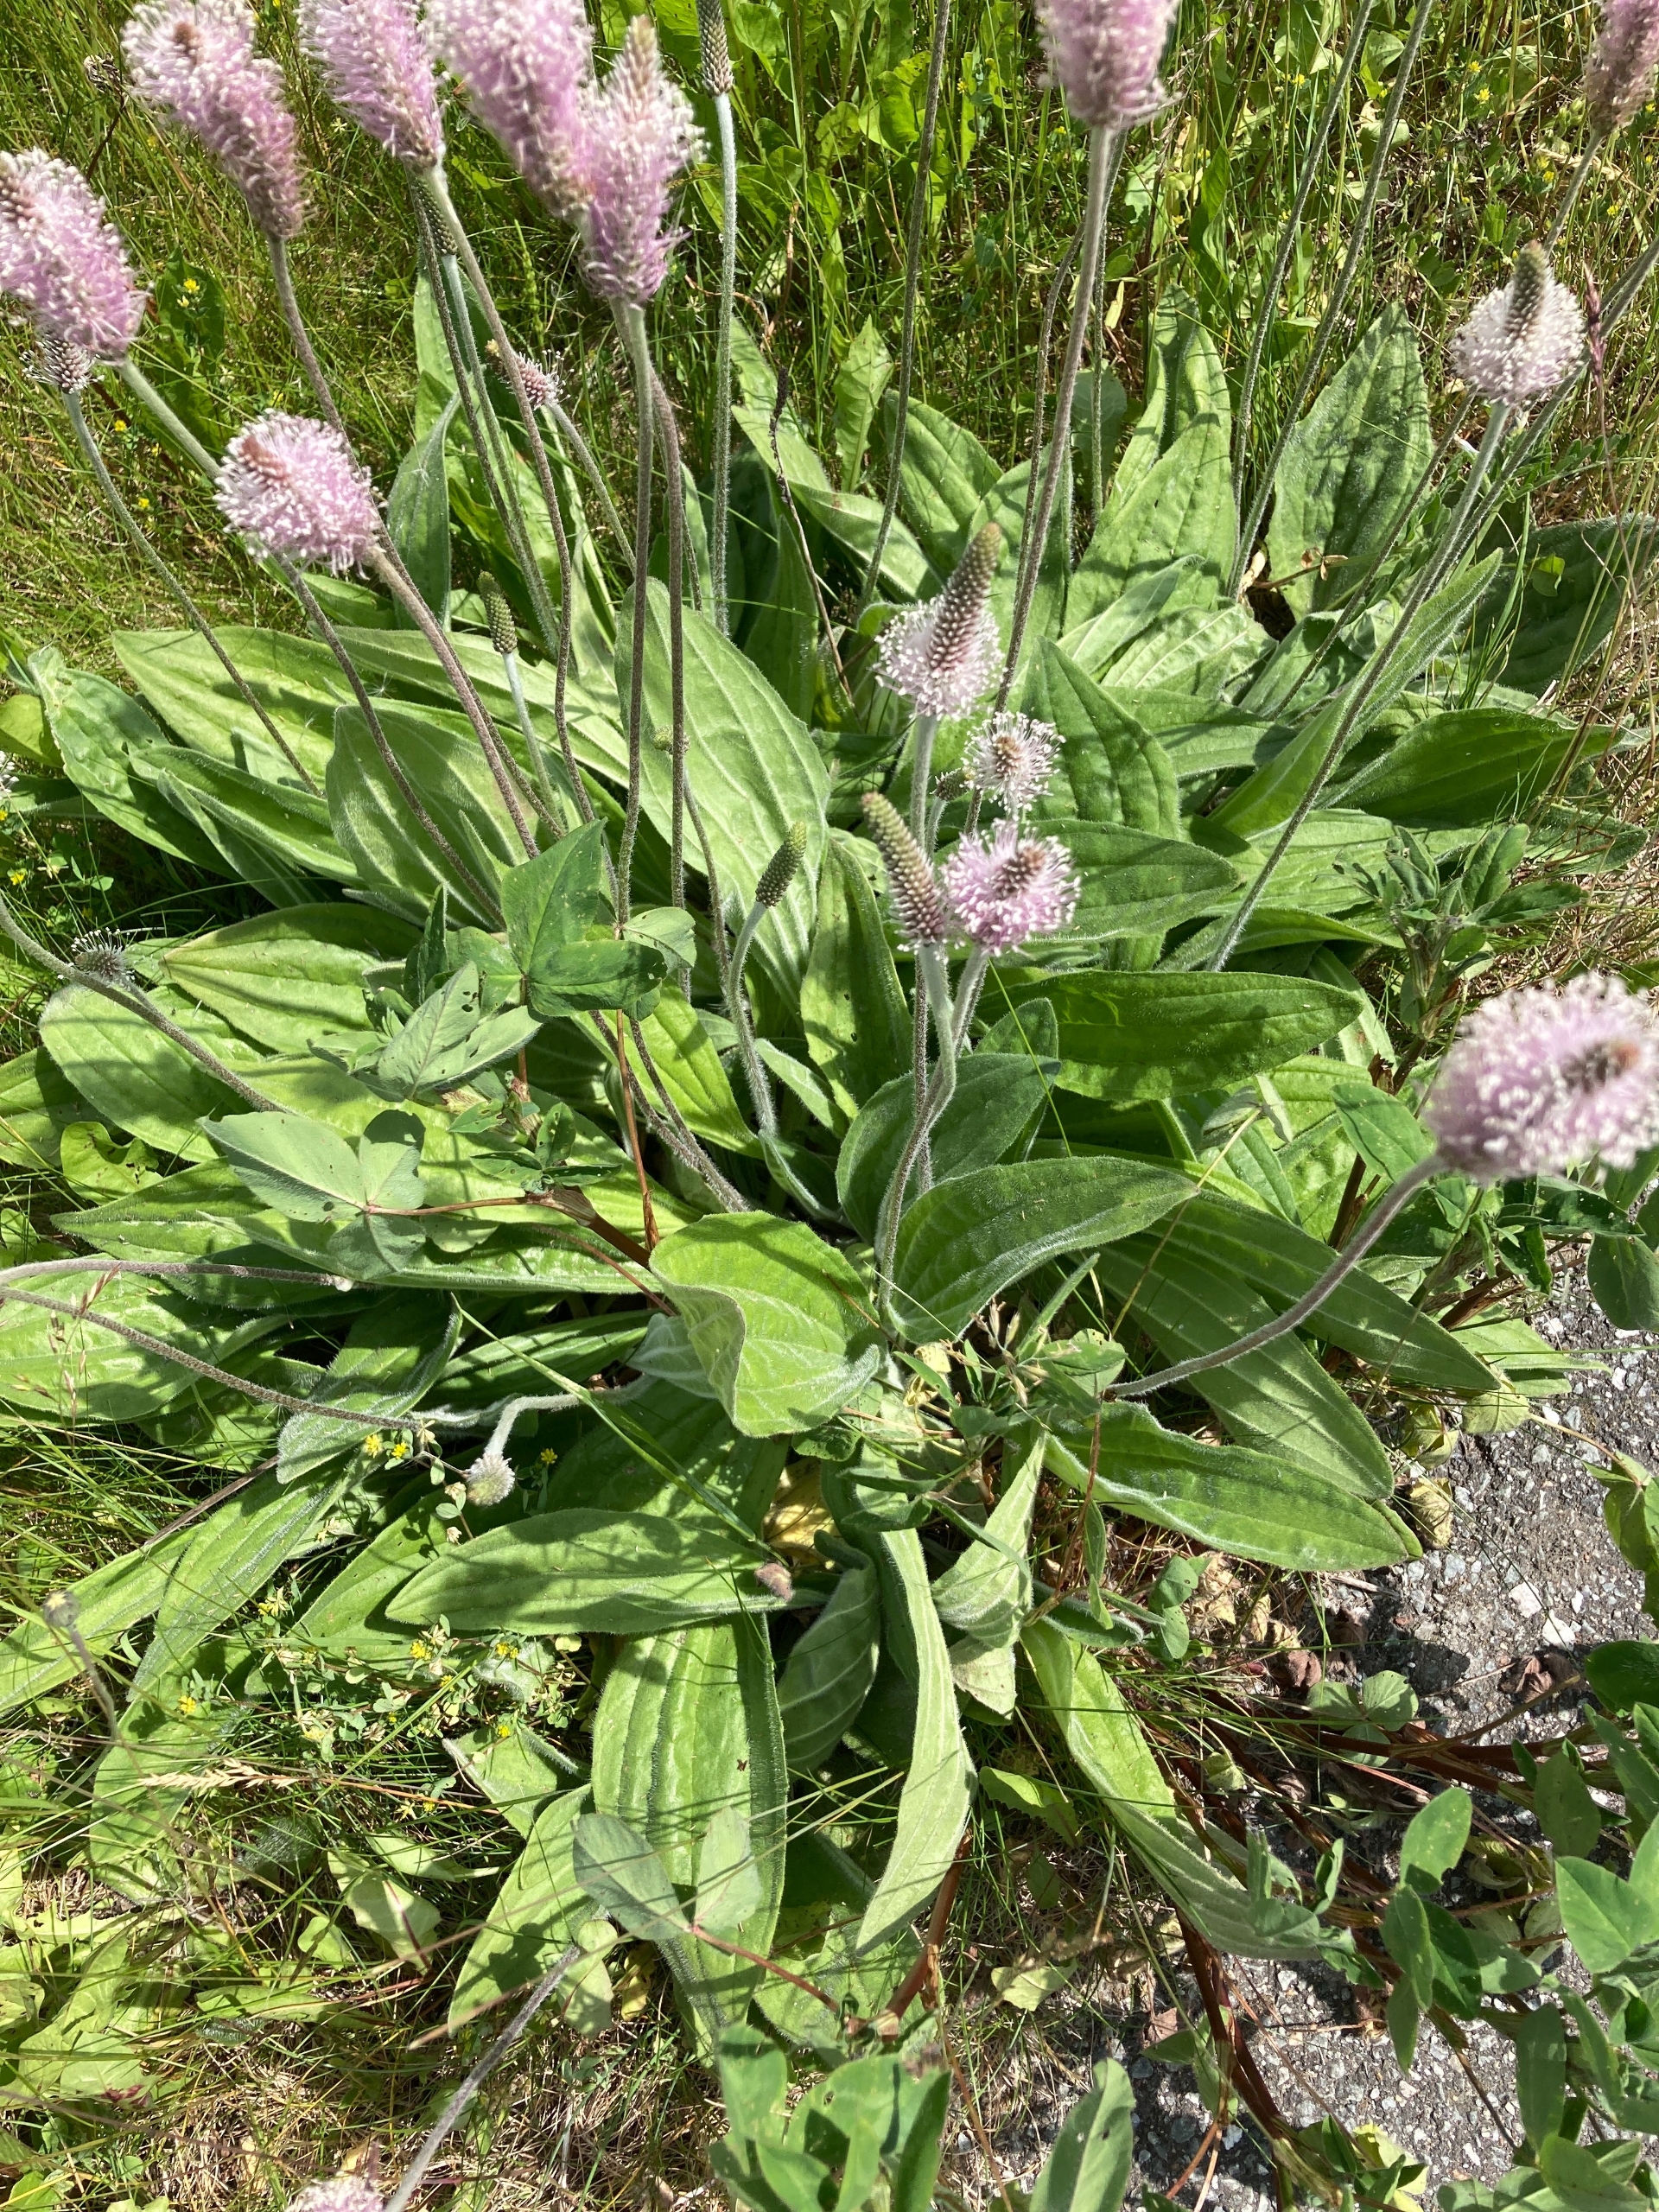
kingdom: Plantae
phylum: Tracheophyta
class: Magnoliopsida
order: Lamiales
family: Plantaginaceae
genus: Plantago
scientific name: Plantago media
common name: Dunet vejbred
